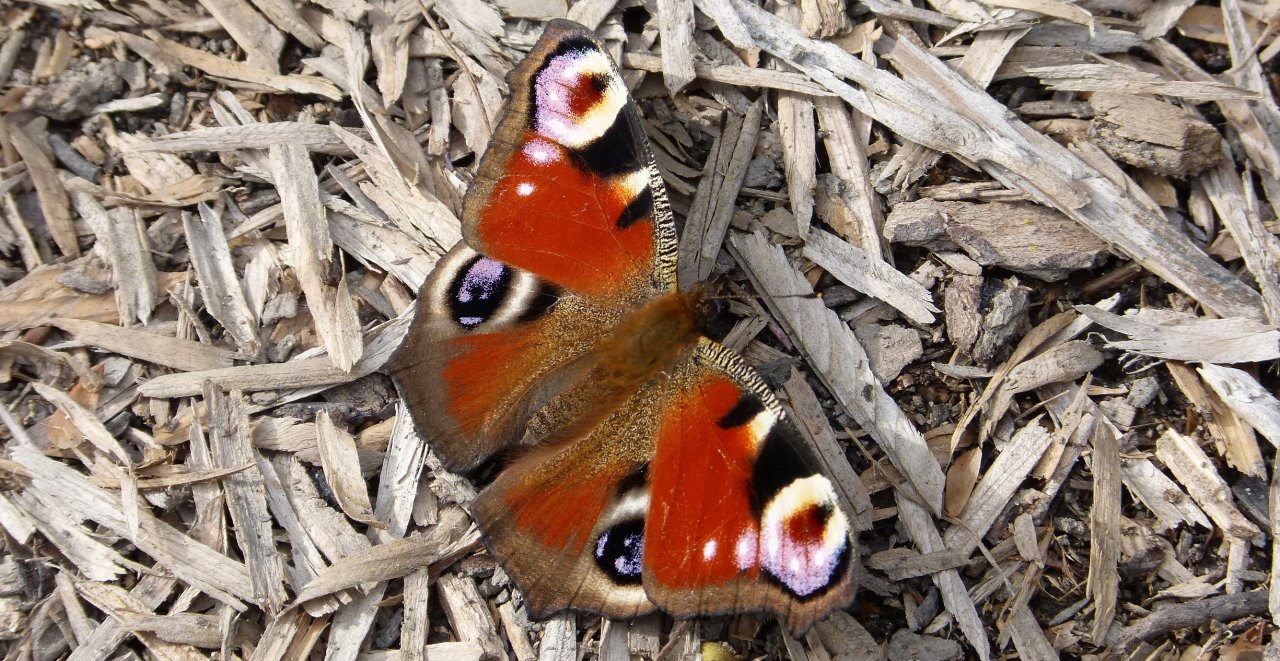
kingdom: Animalia
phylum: Arthropoda
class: Insecta
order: Lepidoptera
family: Nymphalidae
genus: Aglais
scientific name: Aglais io
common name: European Peacock
